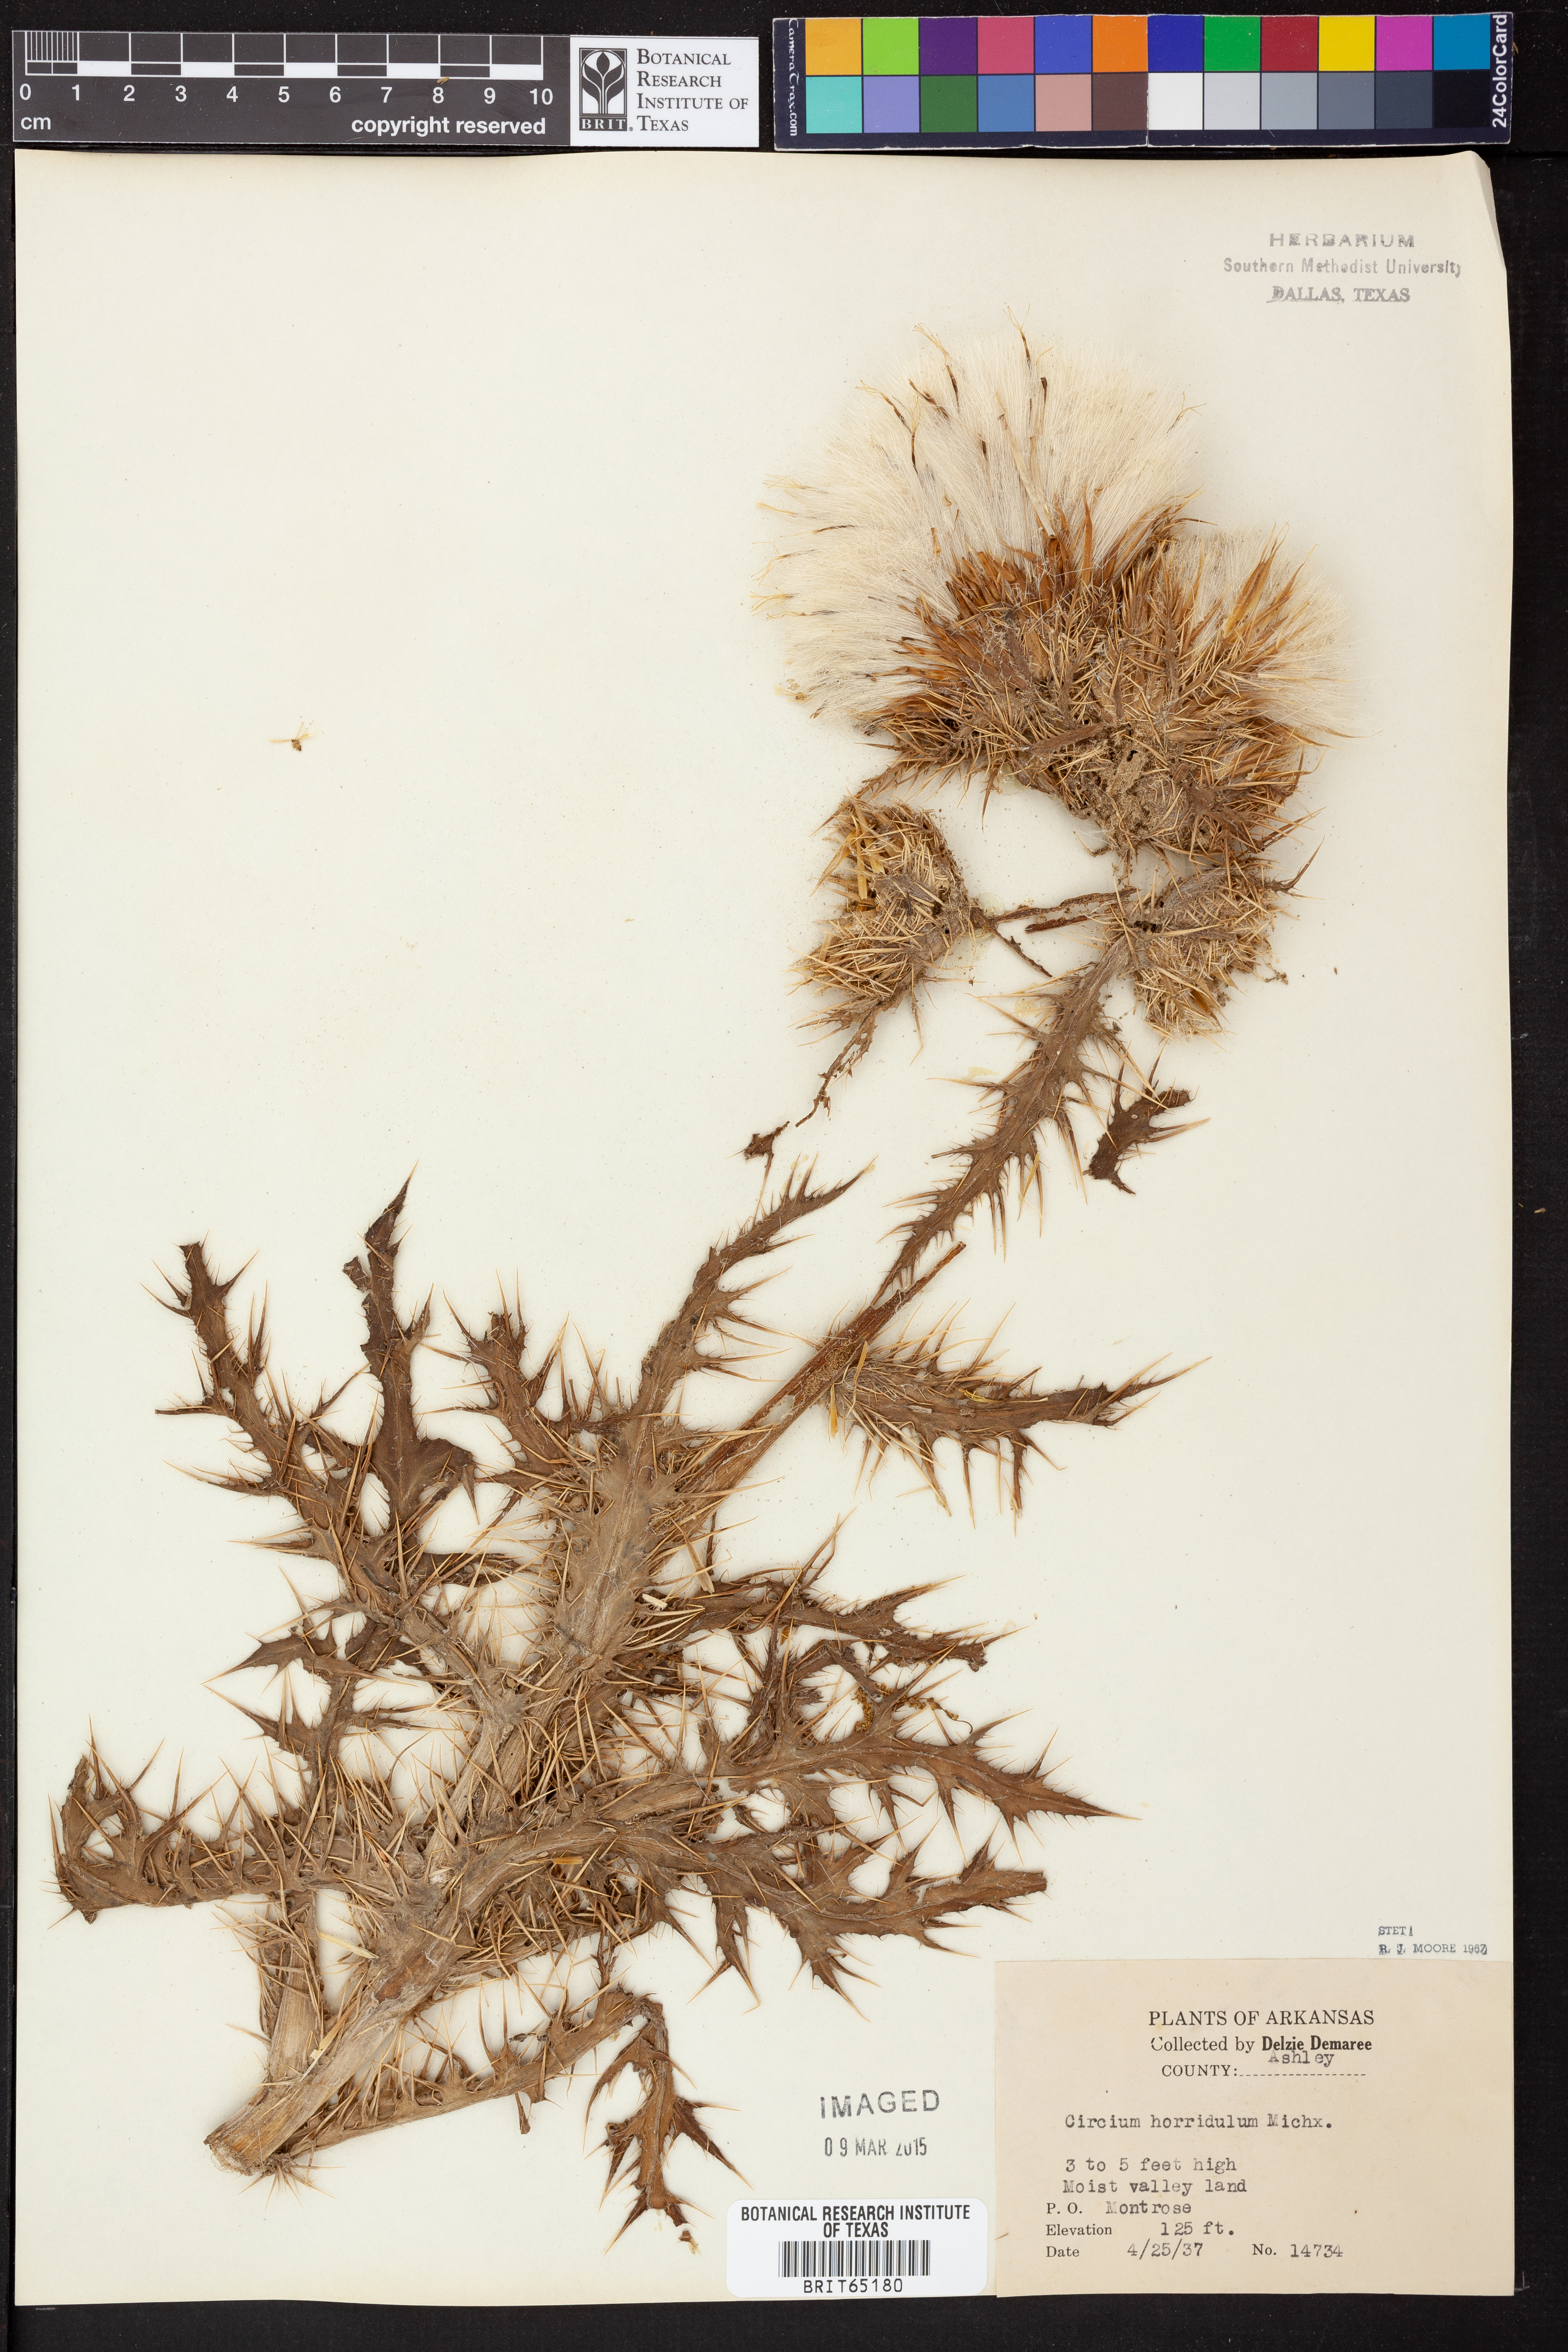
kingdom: Plantae
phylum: Tracheophyta
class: Magnoliopsida
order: Asterales
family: Asteraceae
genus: Cirsium
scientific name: Cirsium horridulum
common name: Bristly thistle
